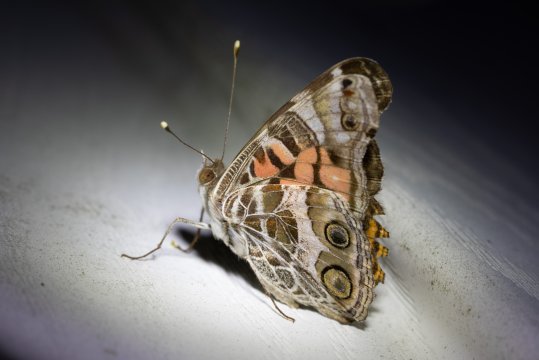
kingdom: Animalia
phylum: Arthropoda
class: Insecta
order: Lepidoptera
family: Nymphalidae
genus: Vanessa
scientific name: Vanessa virginiensis
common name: American Lady
